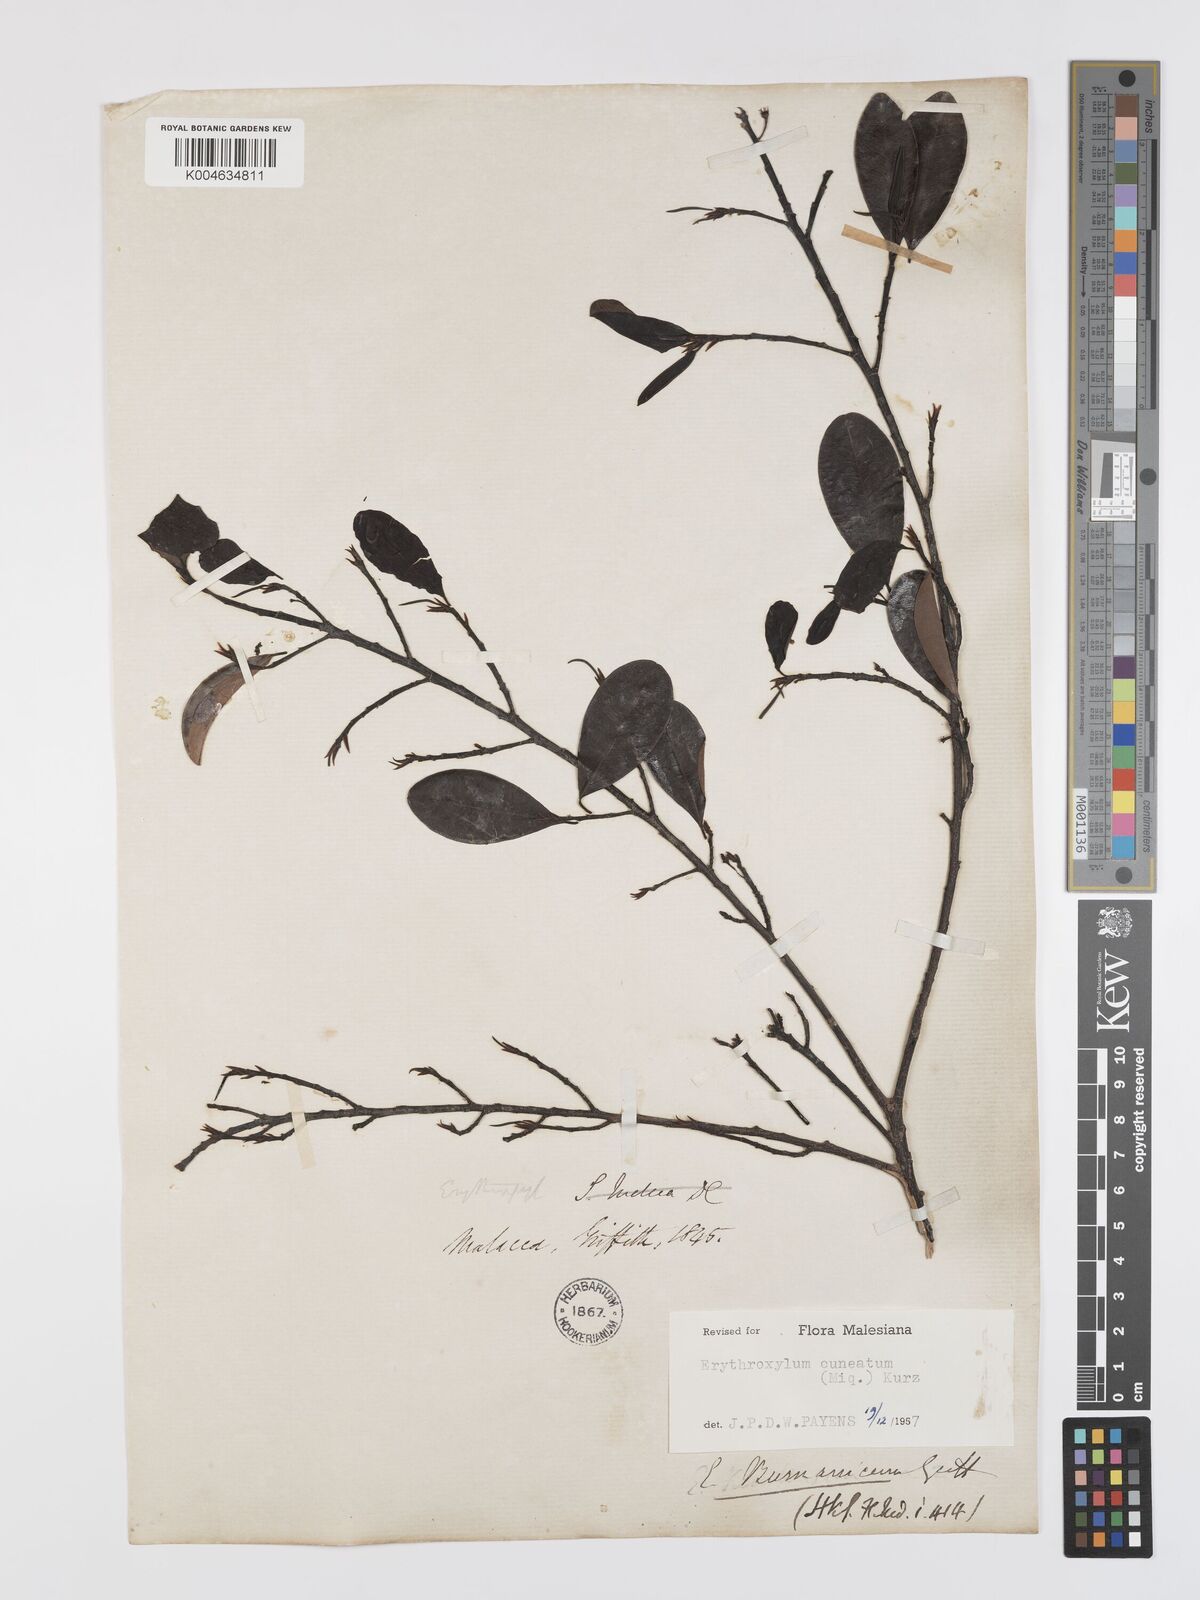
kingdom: Plantae
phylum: Tracheophyta
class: Magnoliopsida
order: Malpighiales
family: Erythroxylaceae
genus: Erythroxylum
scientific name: Erythroxylum cuneatum
